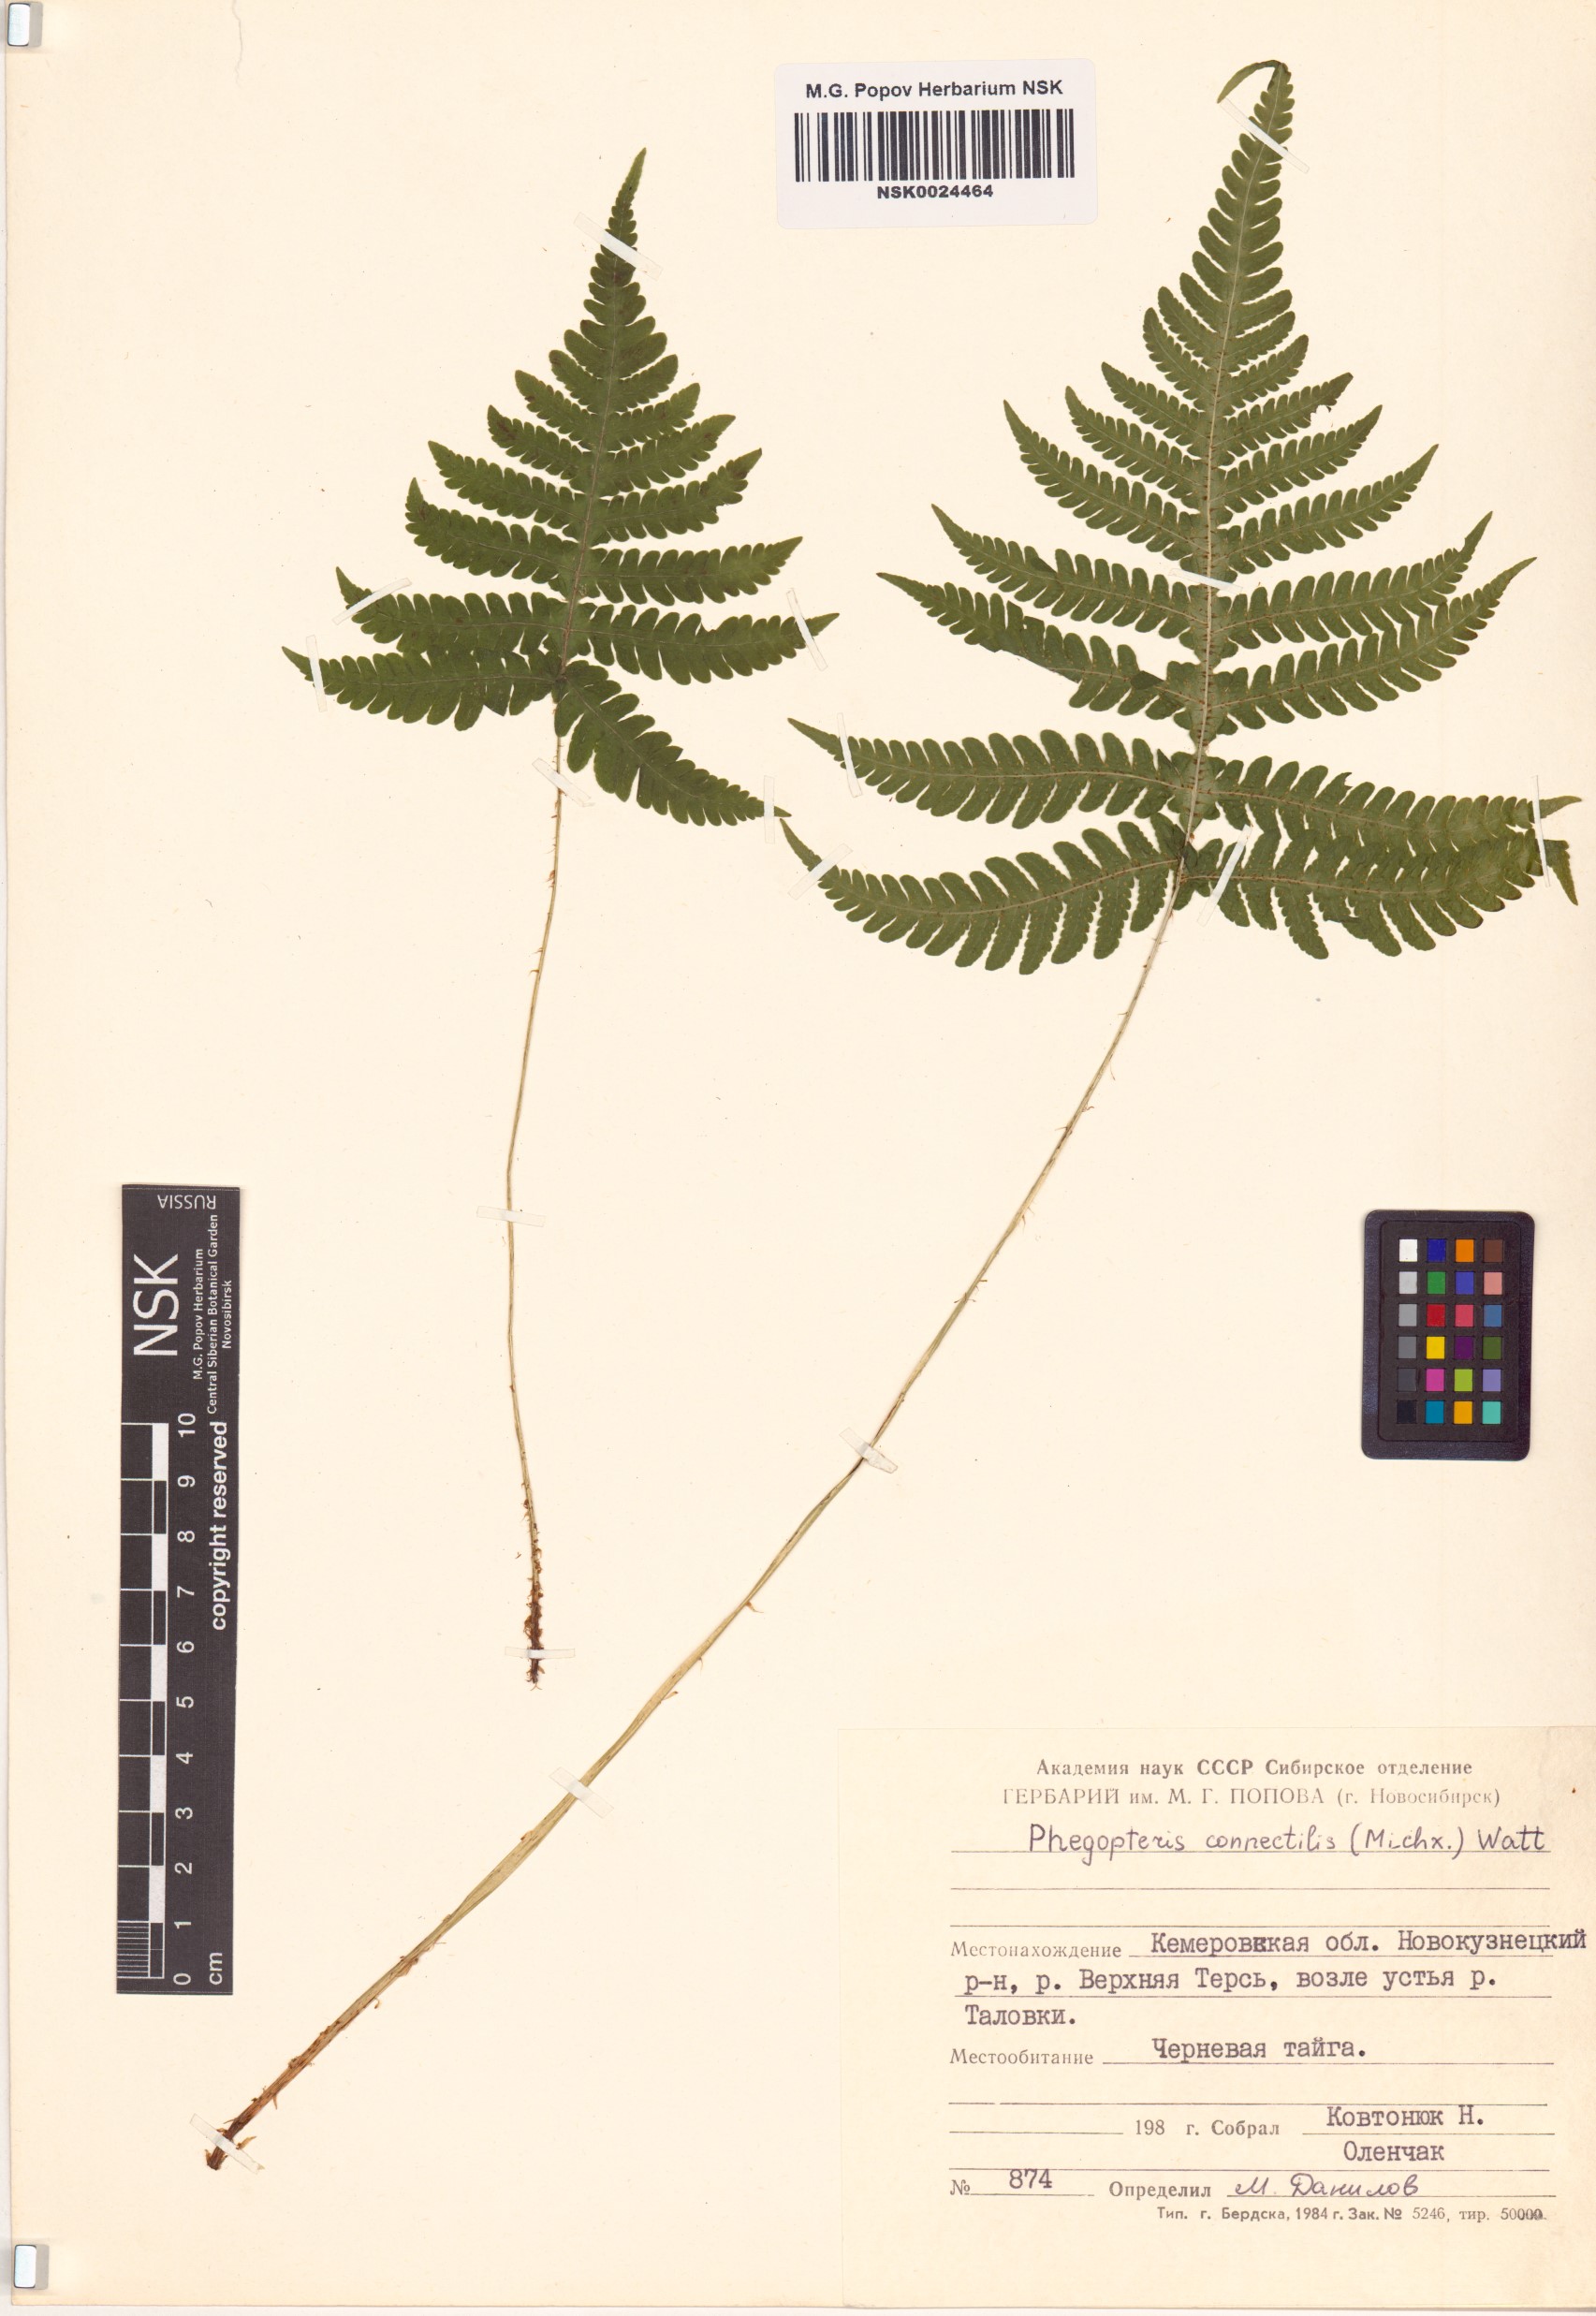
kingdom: Plantae
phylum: Tracheophyta
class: Polypodiopsida
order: Polypodiales
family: Thelypteridaceae
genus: Phegopteris
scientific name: Phegopteris connectilis
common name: Beech fern
